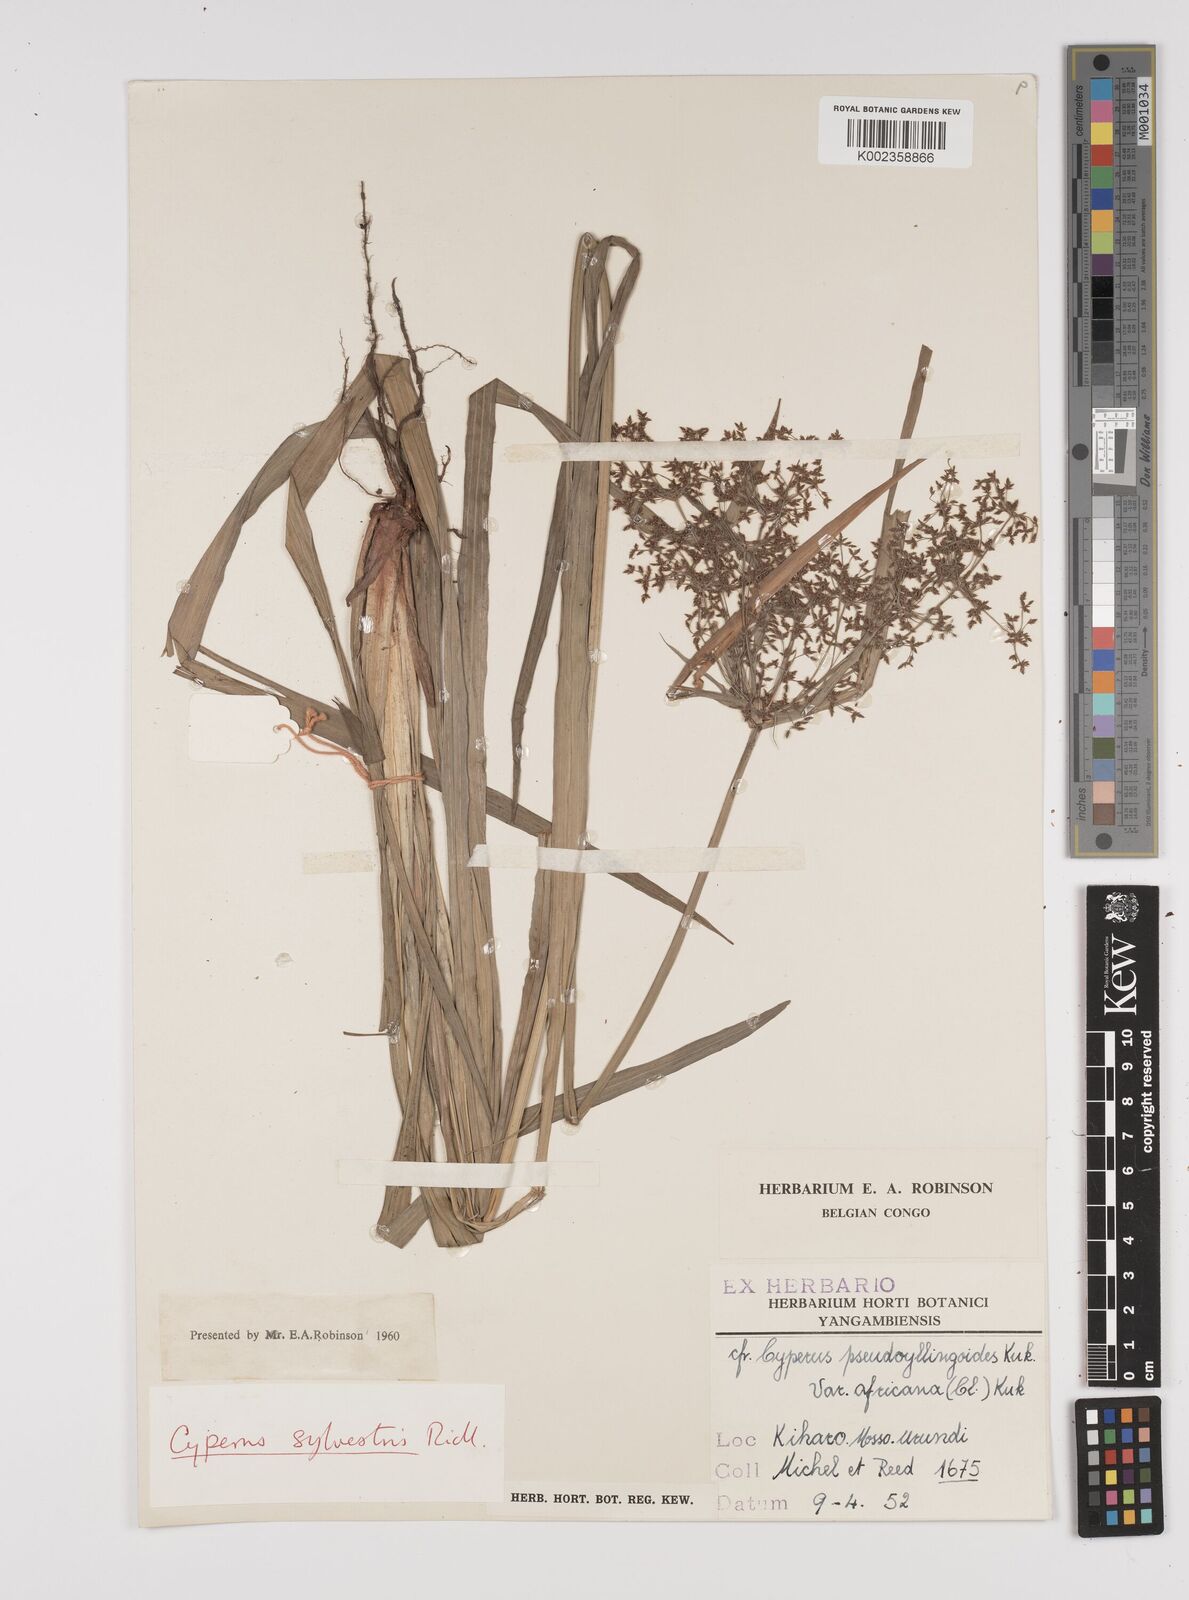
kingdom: Plantae
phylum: Tracheophyta
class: Liliopsida
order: Poales
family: Cyperaceae
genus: Cyperus
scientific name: Cyperus glaucophyllus
